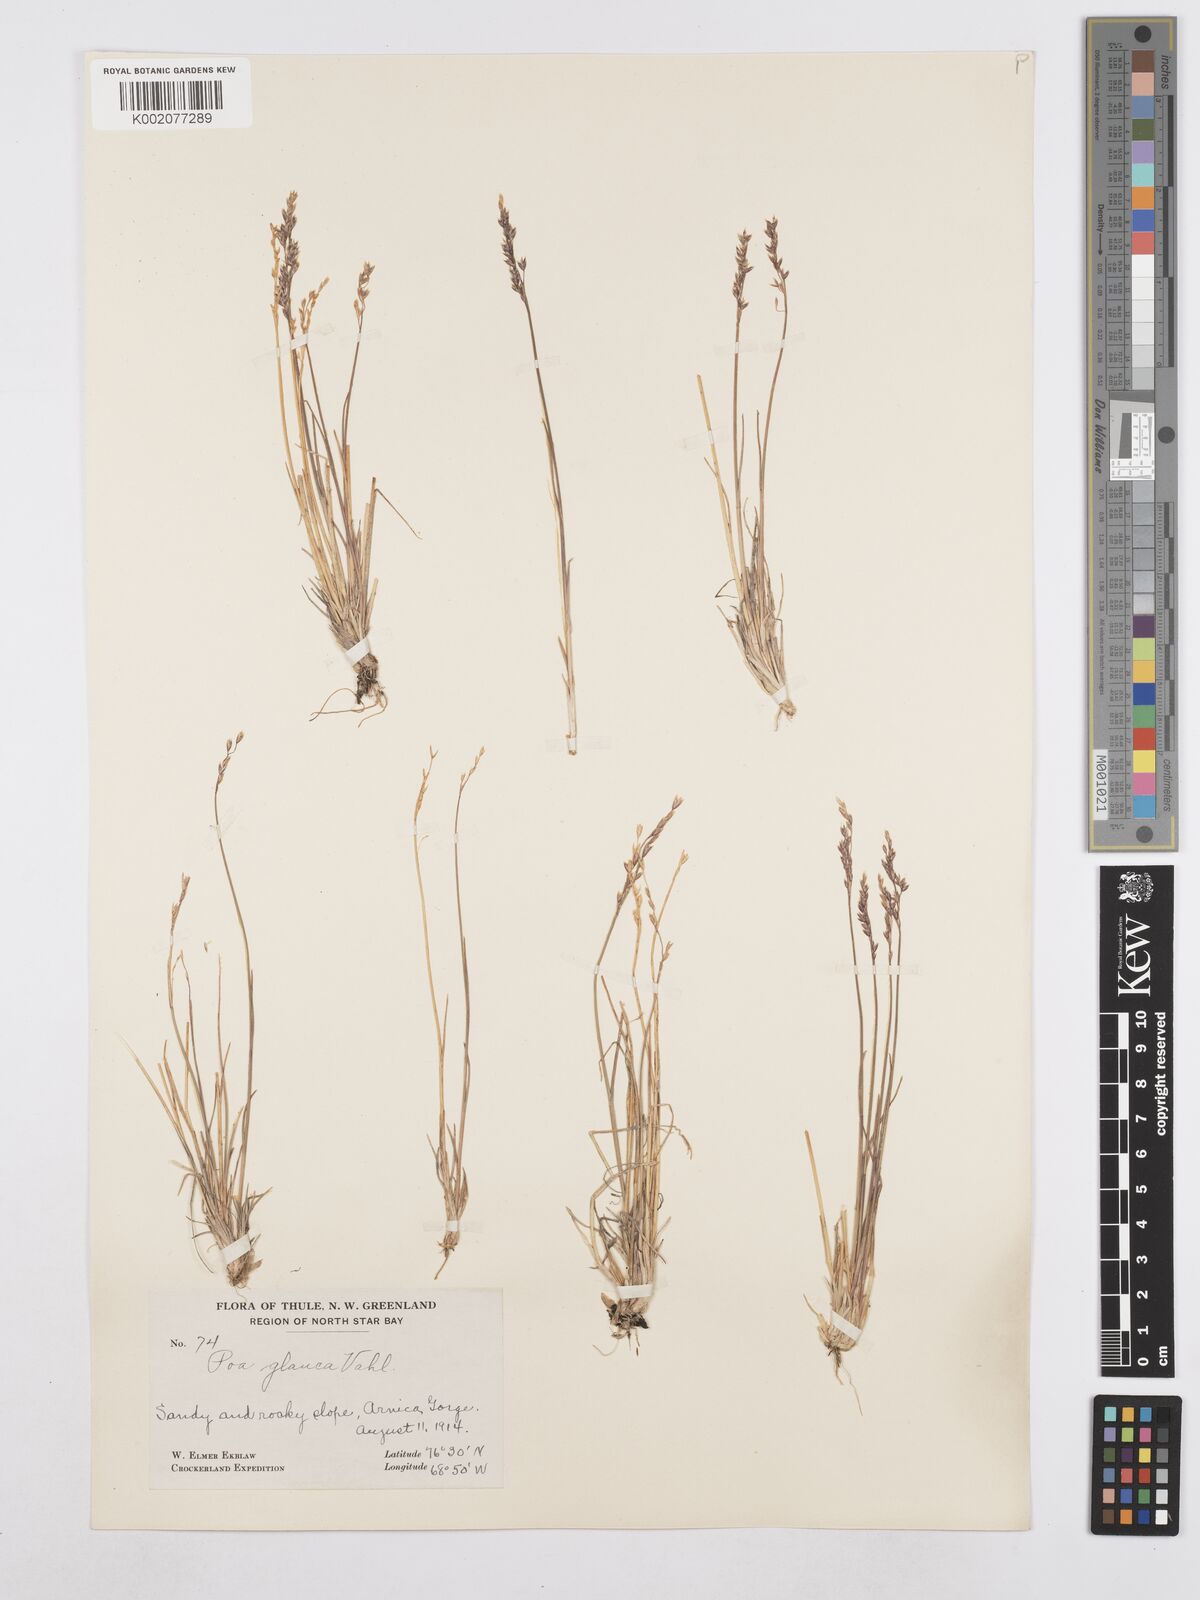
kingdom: Plantae
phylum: Tracheophyta
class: Liliopsida
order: Poales
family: Poaceae
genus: Poa
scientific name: Poa glauca
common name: Glaucous bluegrass
